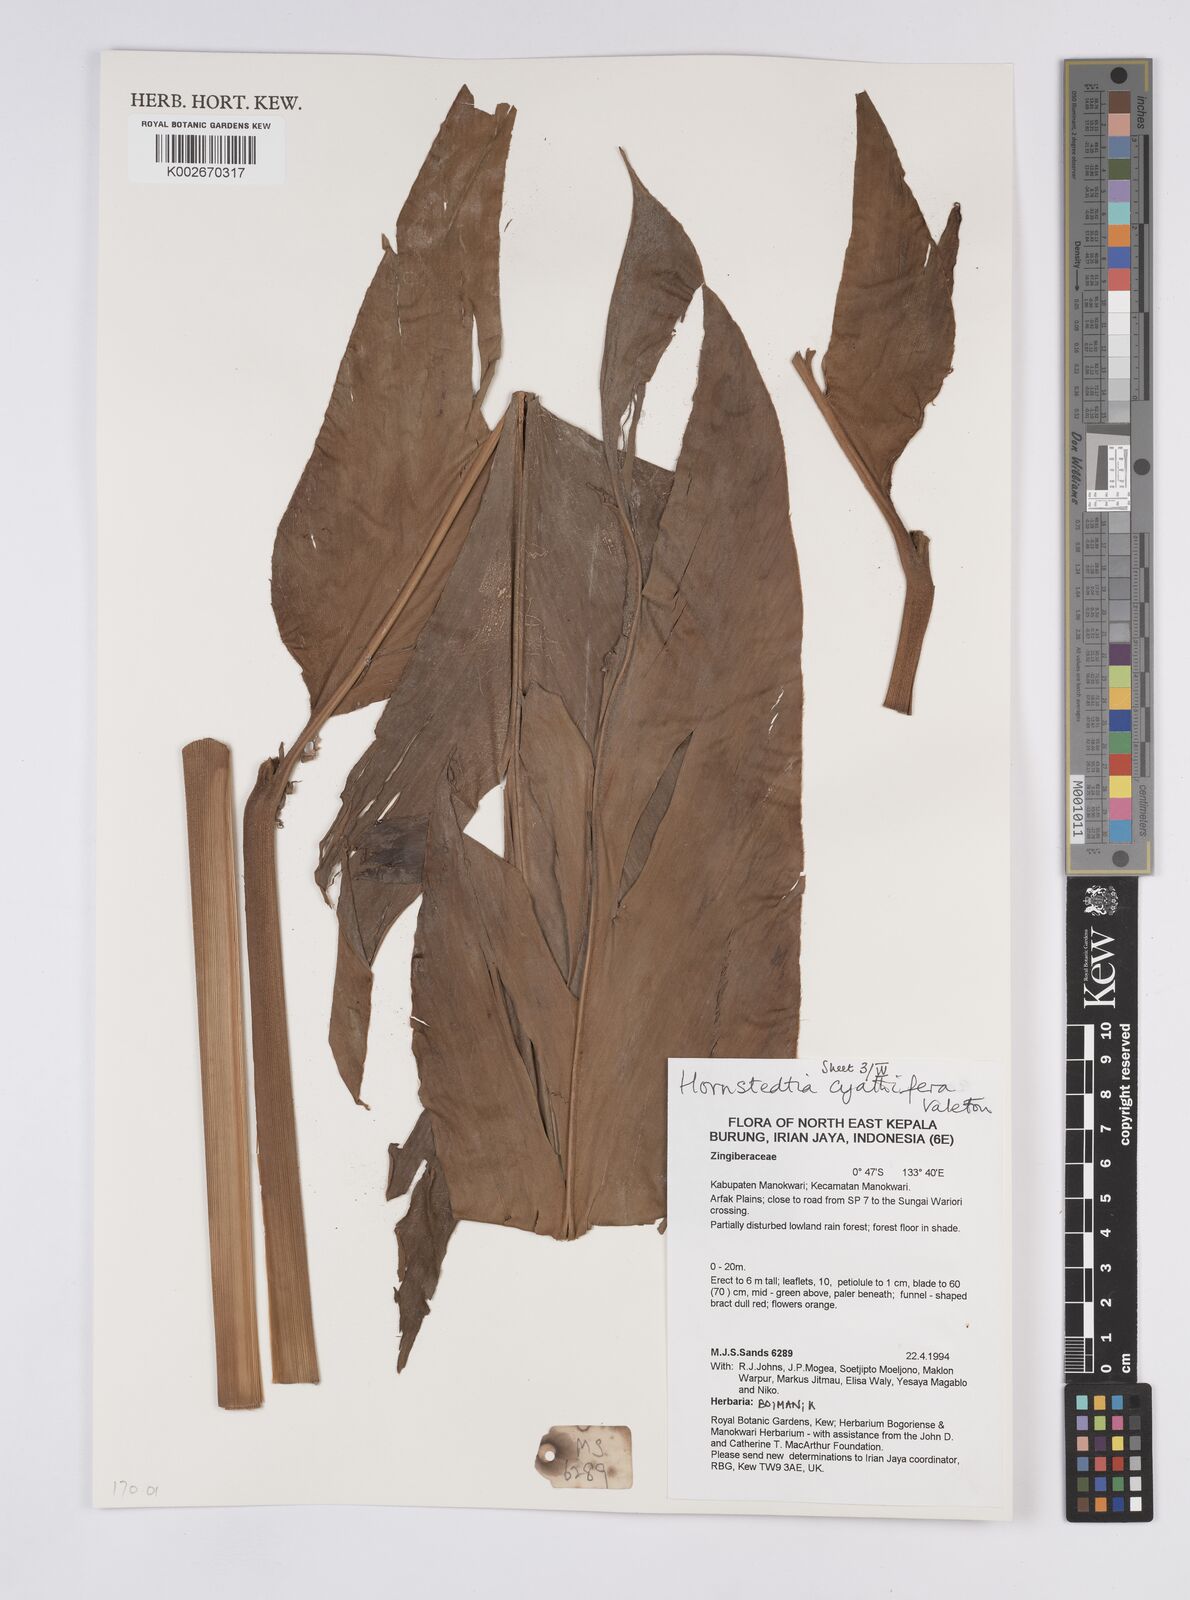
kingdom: Plantae
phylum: Tracheophyta
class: Liliopsida
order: Zingiberales
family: Zingiberaceae
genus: Hornstedtia
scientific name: Hornstedtia cyathifera
